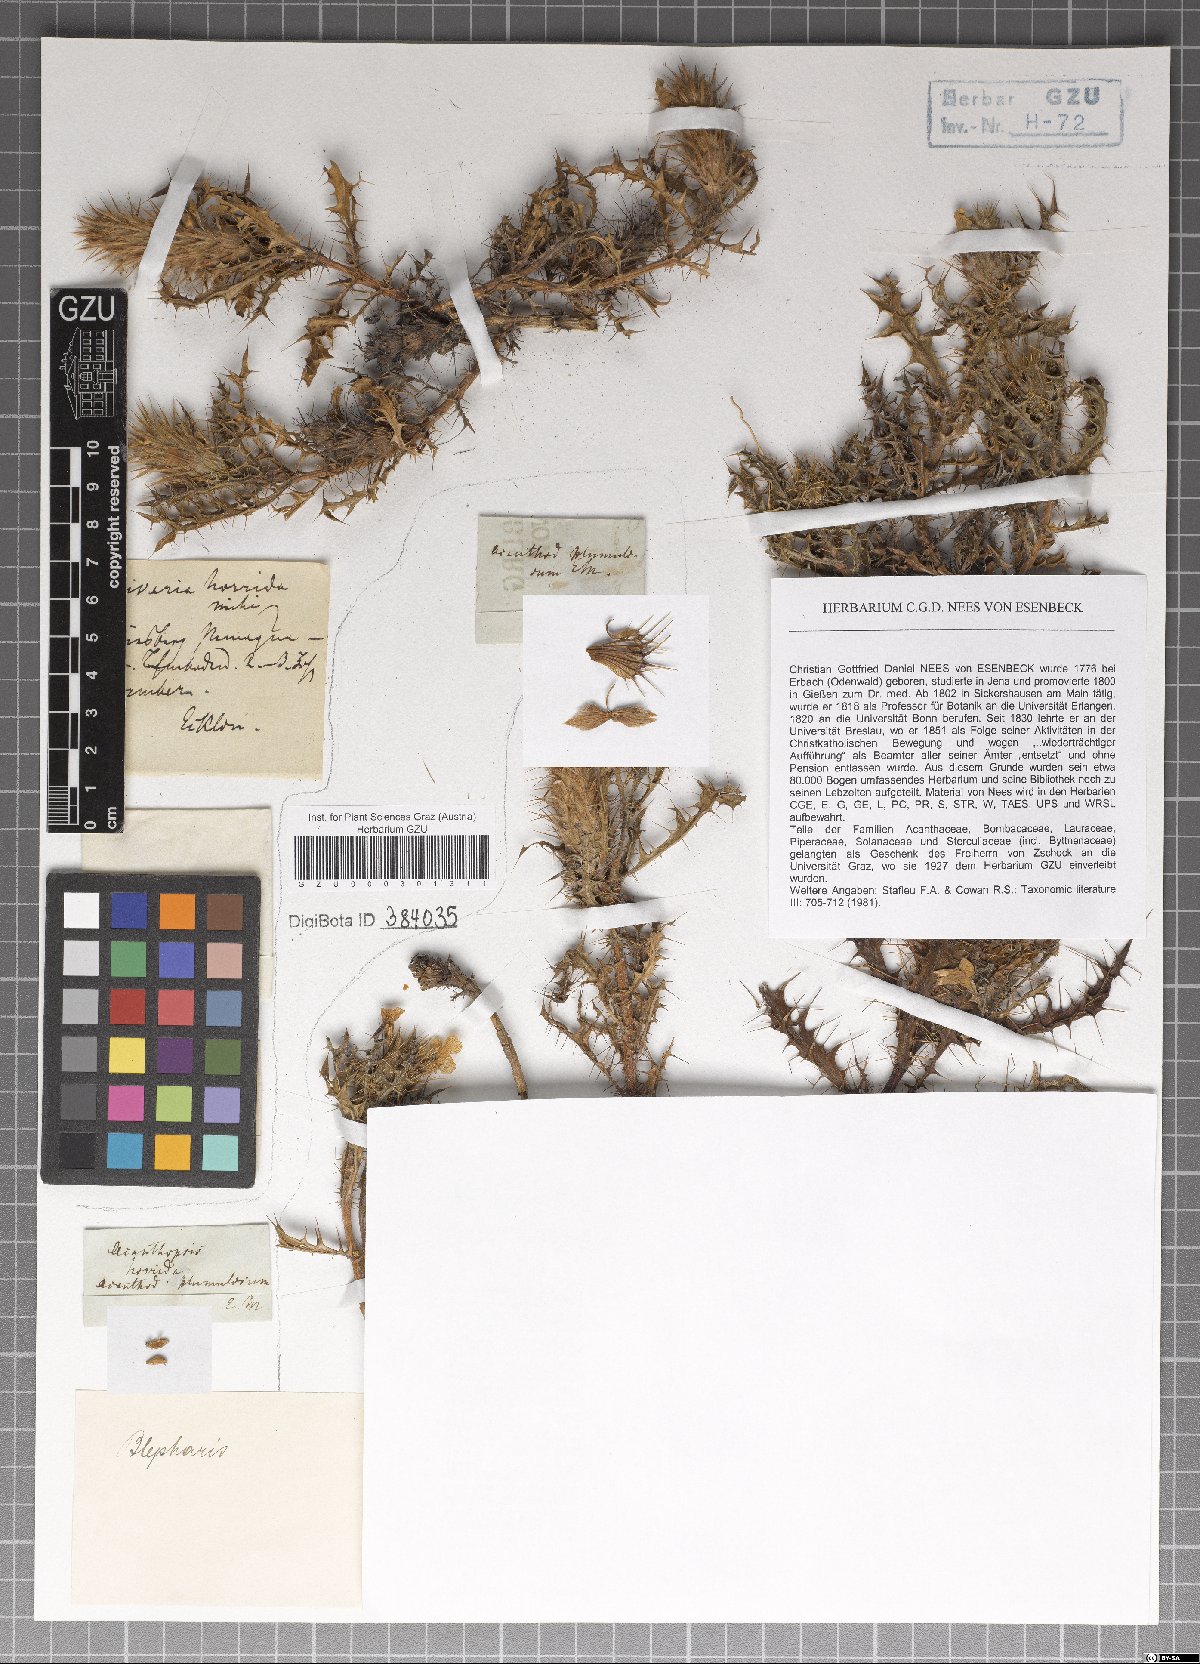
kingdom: Plantae
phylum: Tracheophyta
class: Magnoliopsida
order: Lamiales
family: Acanthaceae
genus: Acanthopsis
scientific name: Acanthopsis horrida
